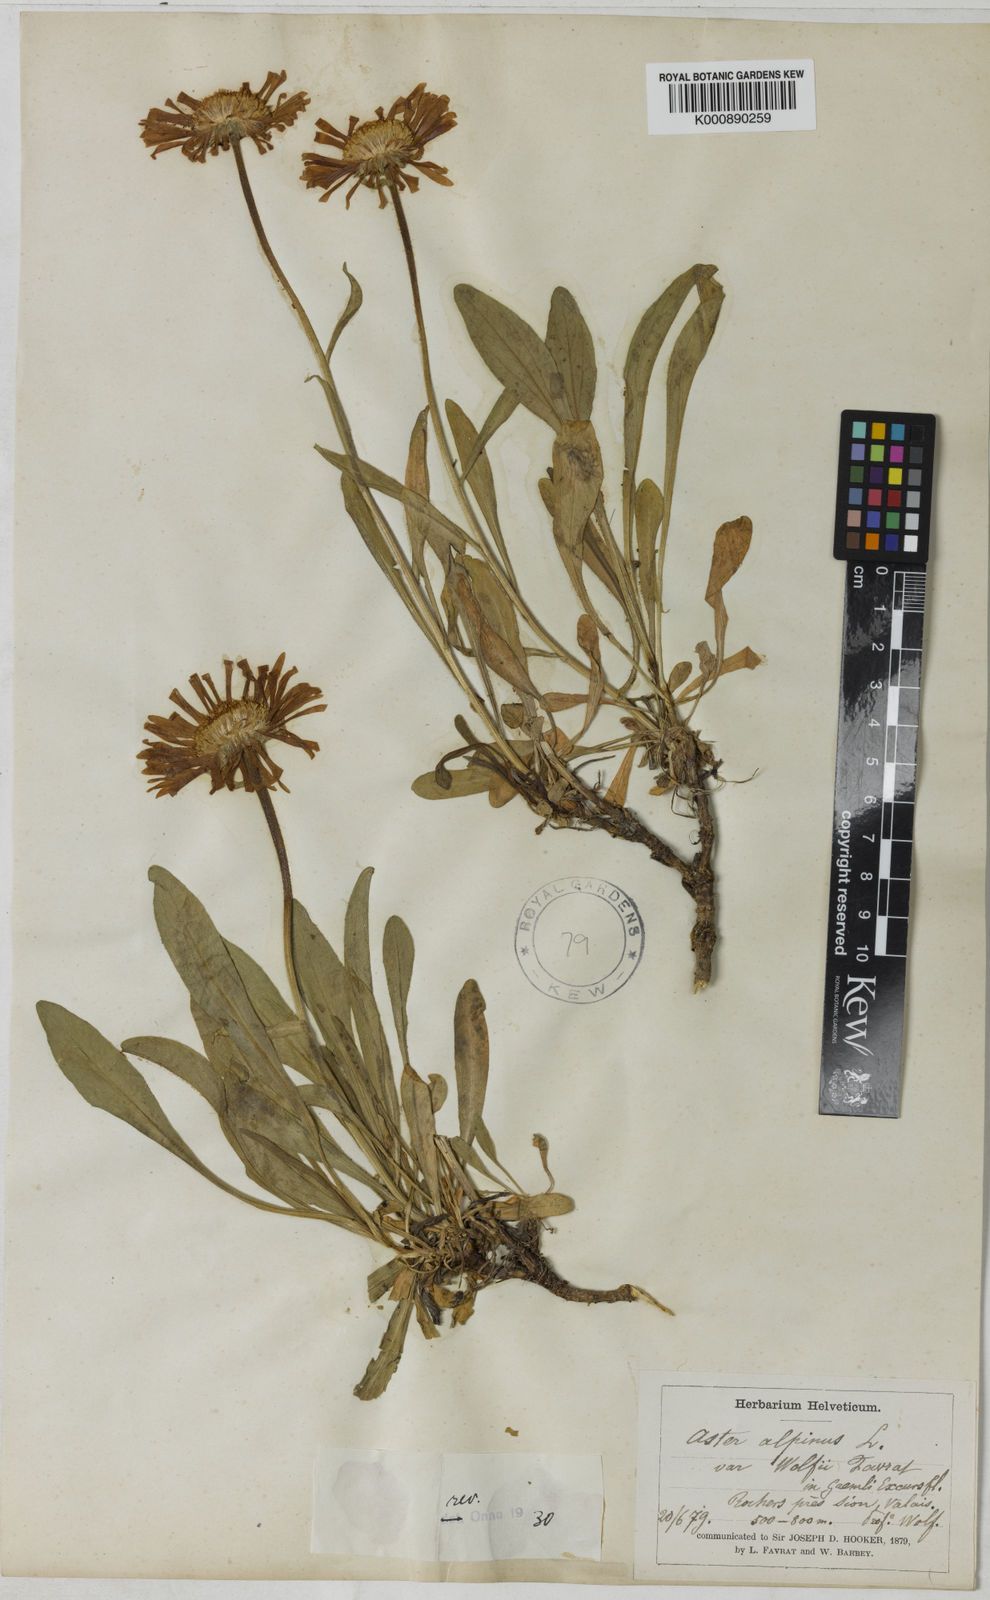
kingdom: Plantae
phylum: Tracheophyta
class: Magnoliopsida
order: Asterales
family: Asteraceae
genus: Aster
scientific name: Aster alpinus
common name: Alpine aster
